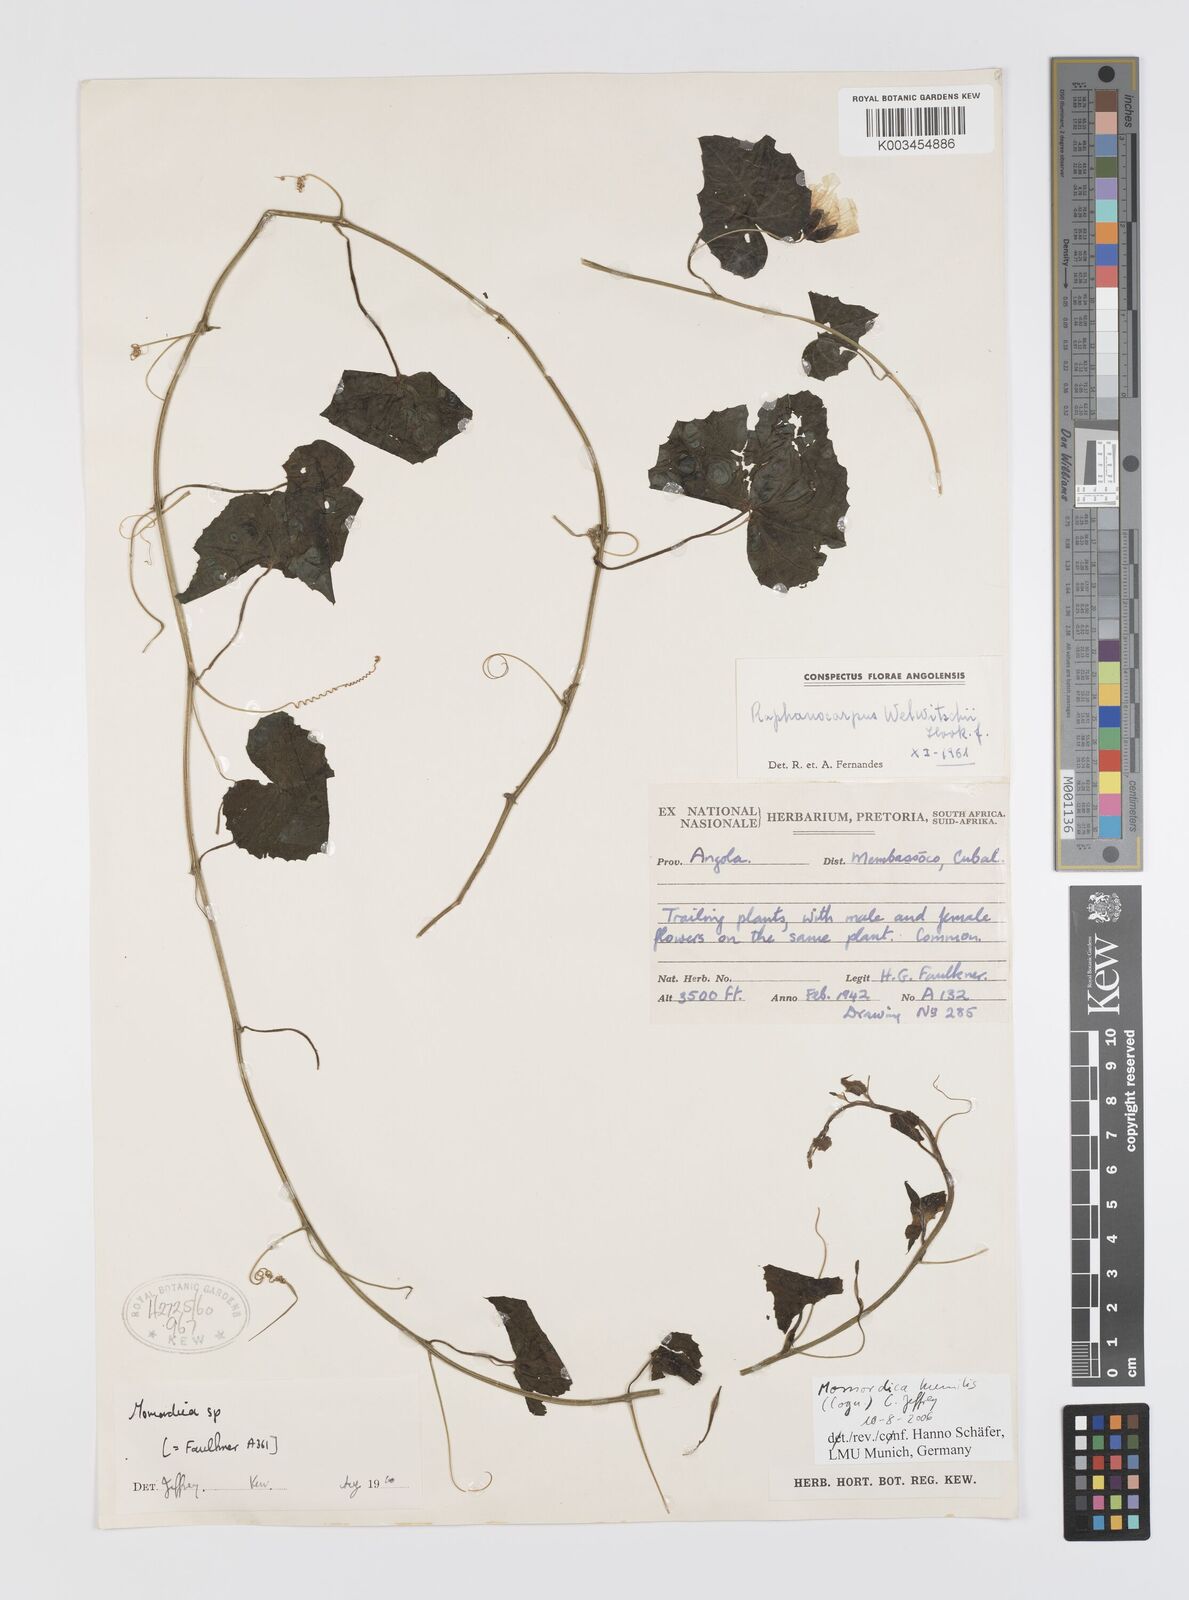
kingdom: Plantae
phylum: Tracheophyta
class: Magnoliopsida
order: Cucurbitales
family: Cucurbitaceae
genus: Momordica
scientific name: Momordica humilis
